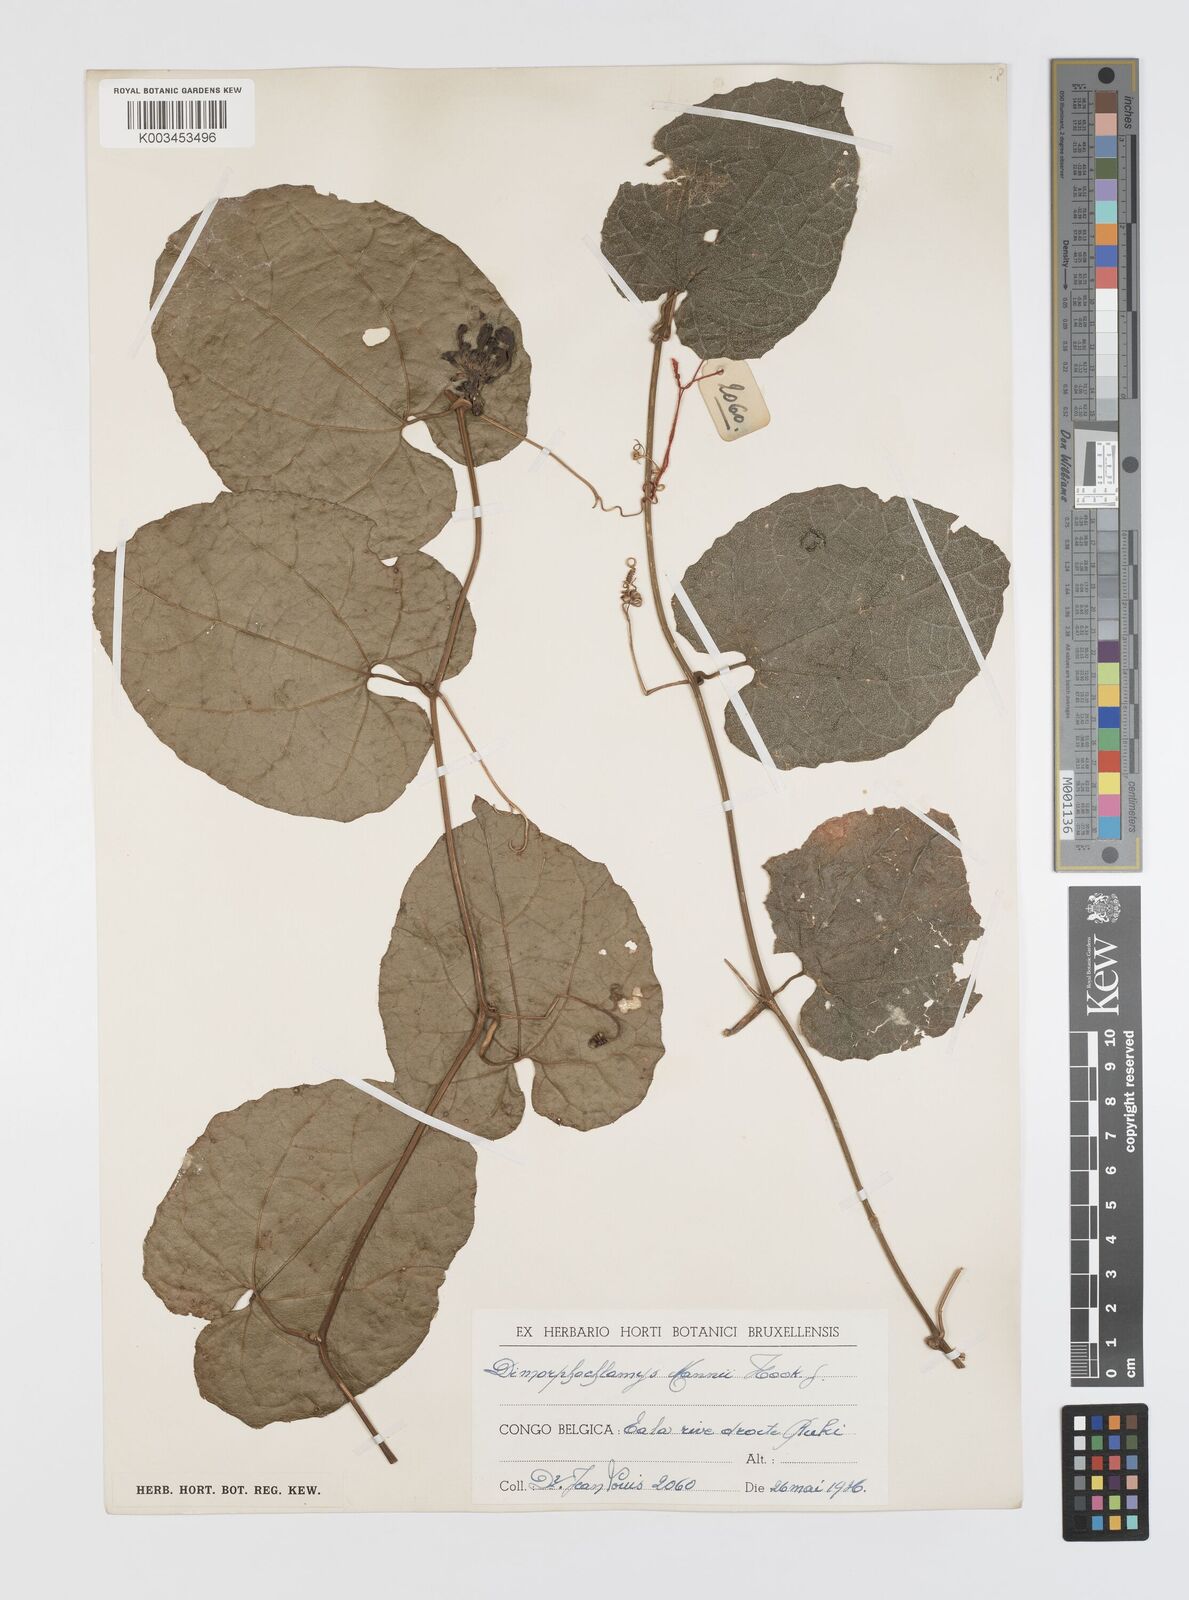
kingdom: Plantae
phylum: Tracheophyta
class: Magnoliopsida
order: Cucurbitales
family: Cucurbitaceae
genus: Momordica
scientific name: Momordica cabrae
